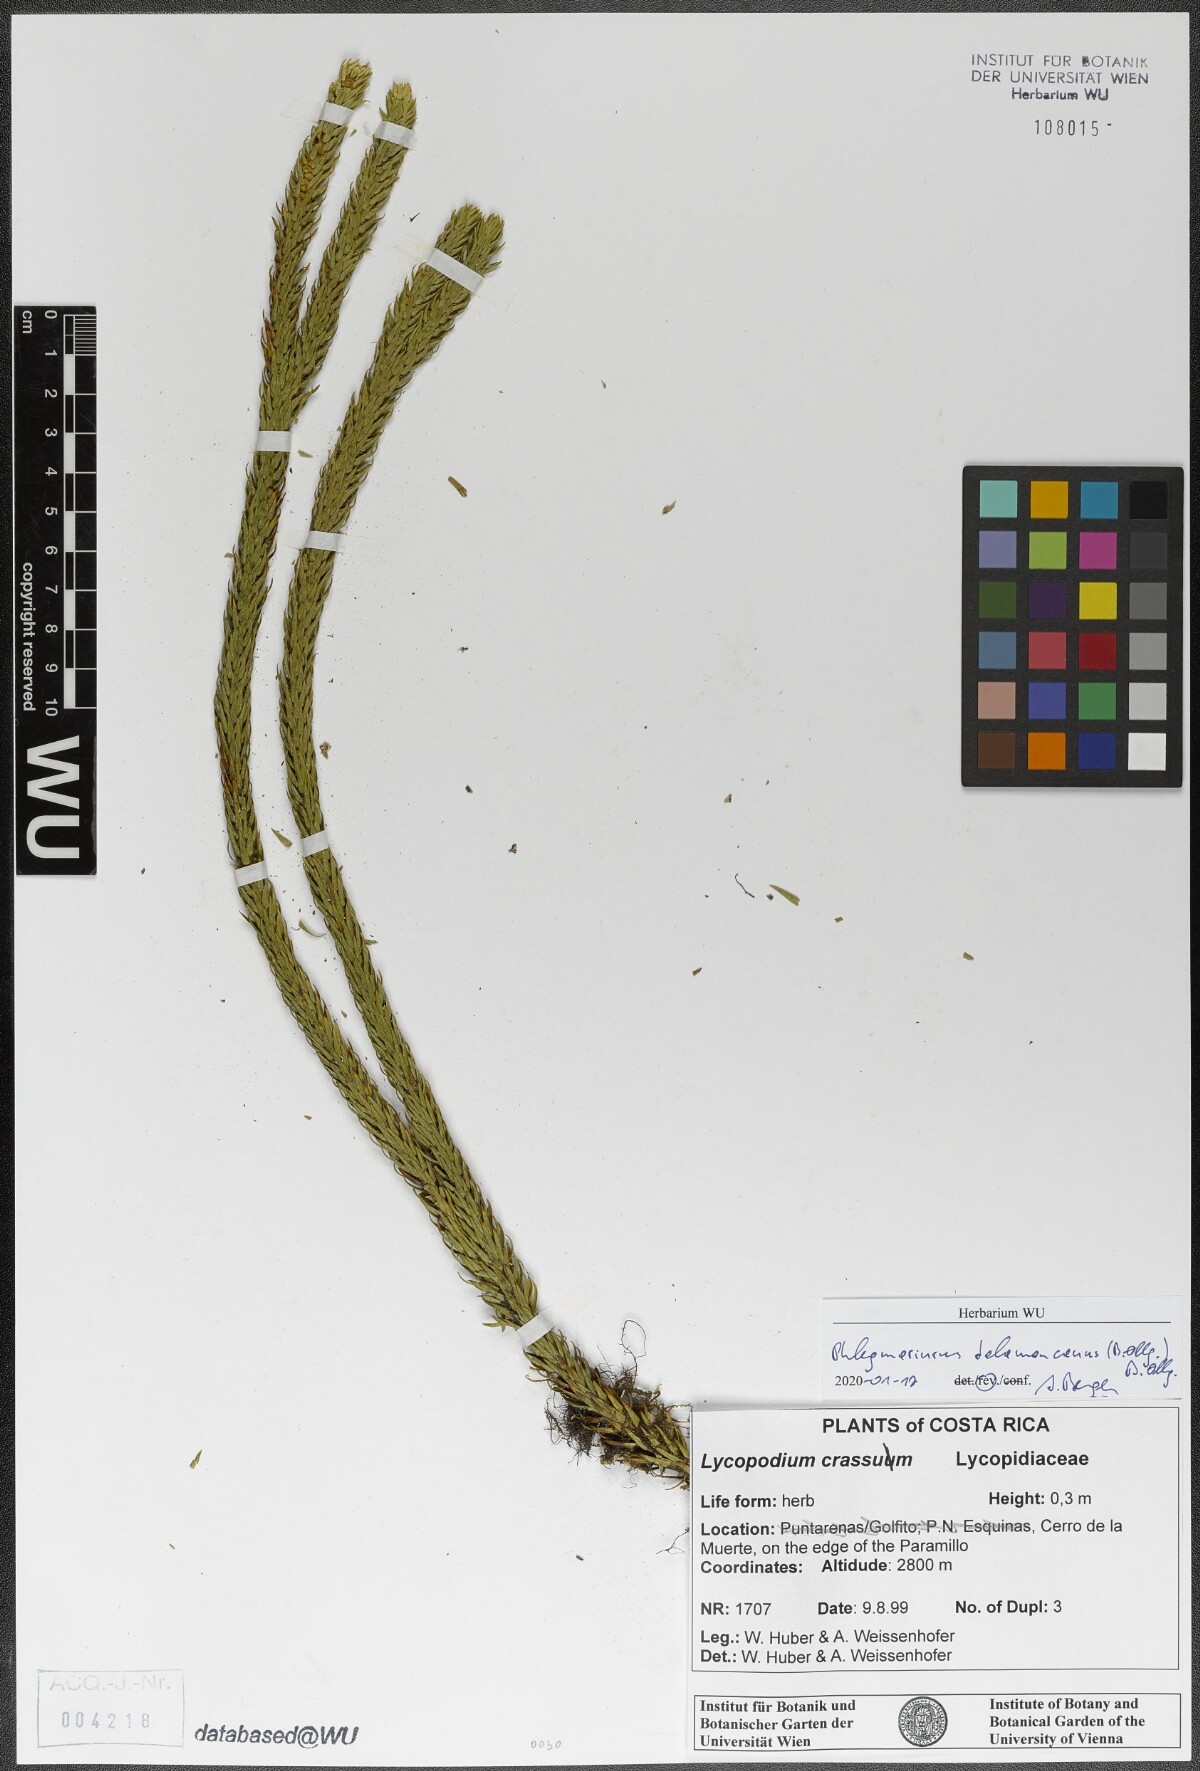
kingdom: Plantae
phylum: Tracheophyta
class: Lycopodiopsida
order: Lycopodiales
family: Lycopodiaceae
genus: Phlegmariurus
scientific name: Phlegmariurus talamancanus
